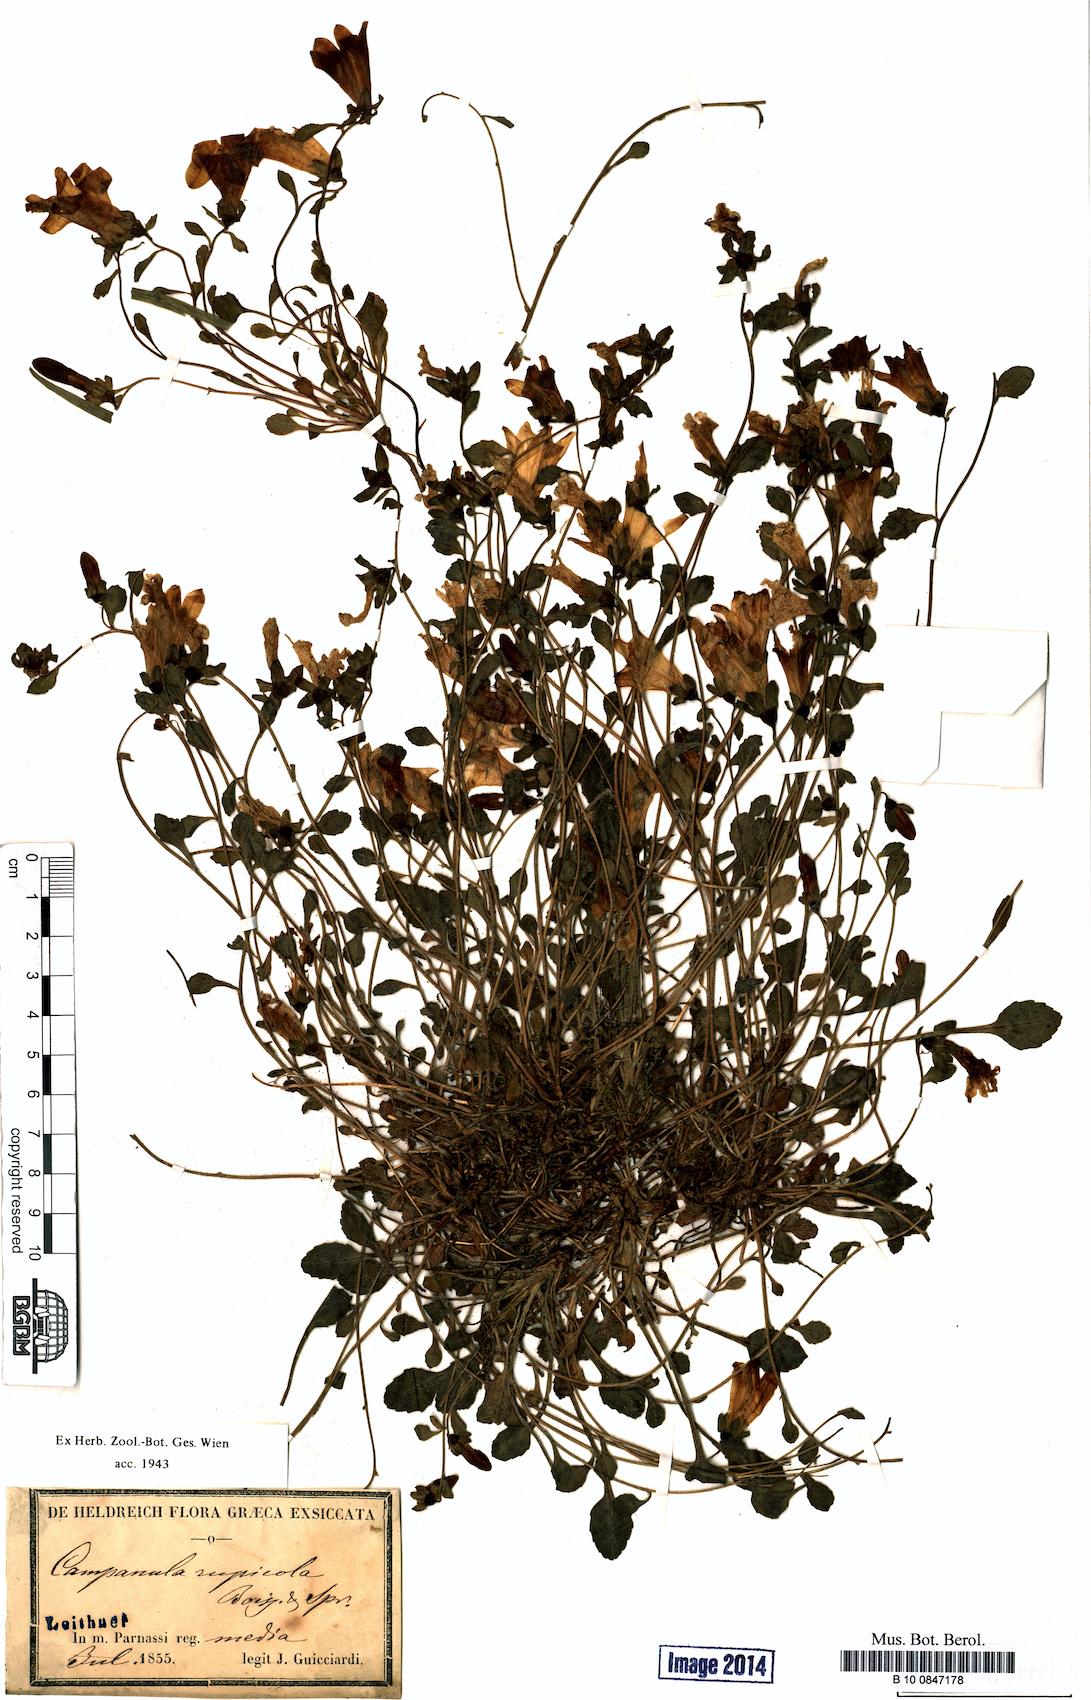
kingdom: Plantae
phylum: Tracheophyta
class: Magnoliopsida
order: Asterales
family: Campanulaceae
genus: Campanula
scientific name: Campanula rupicola
